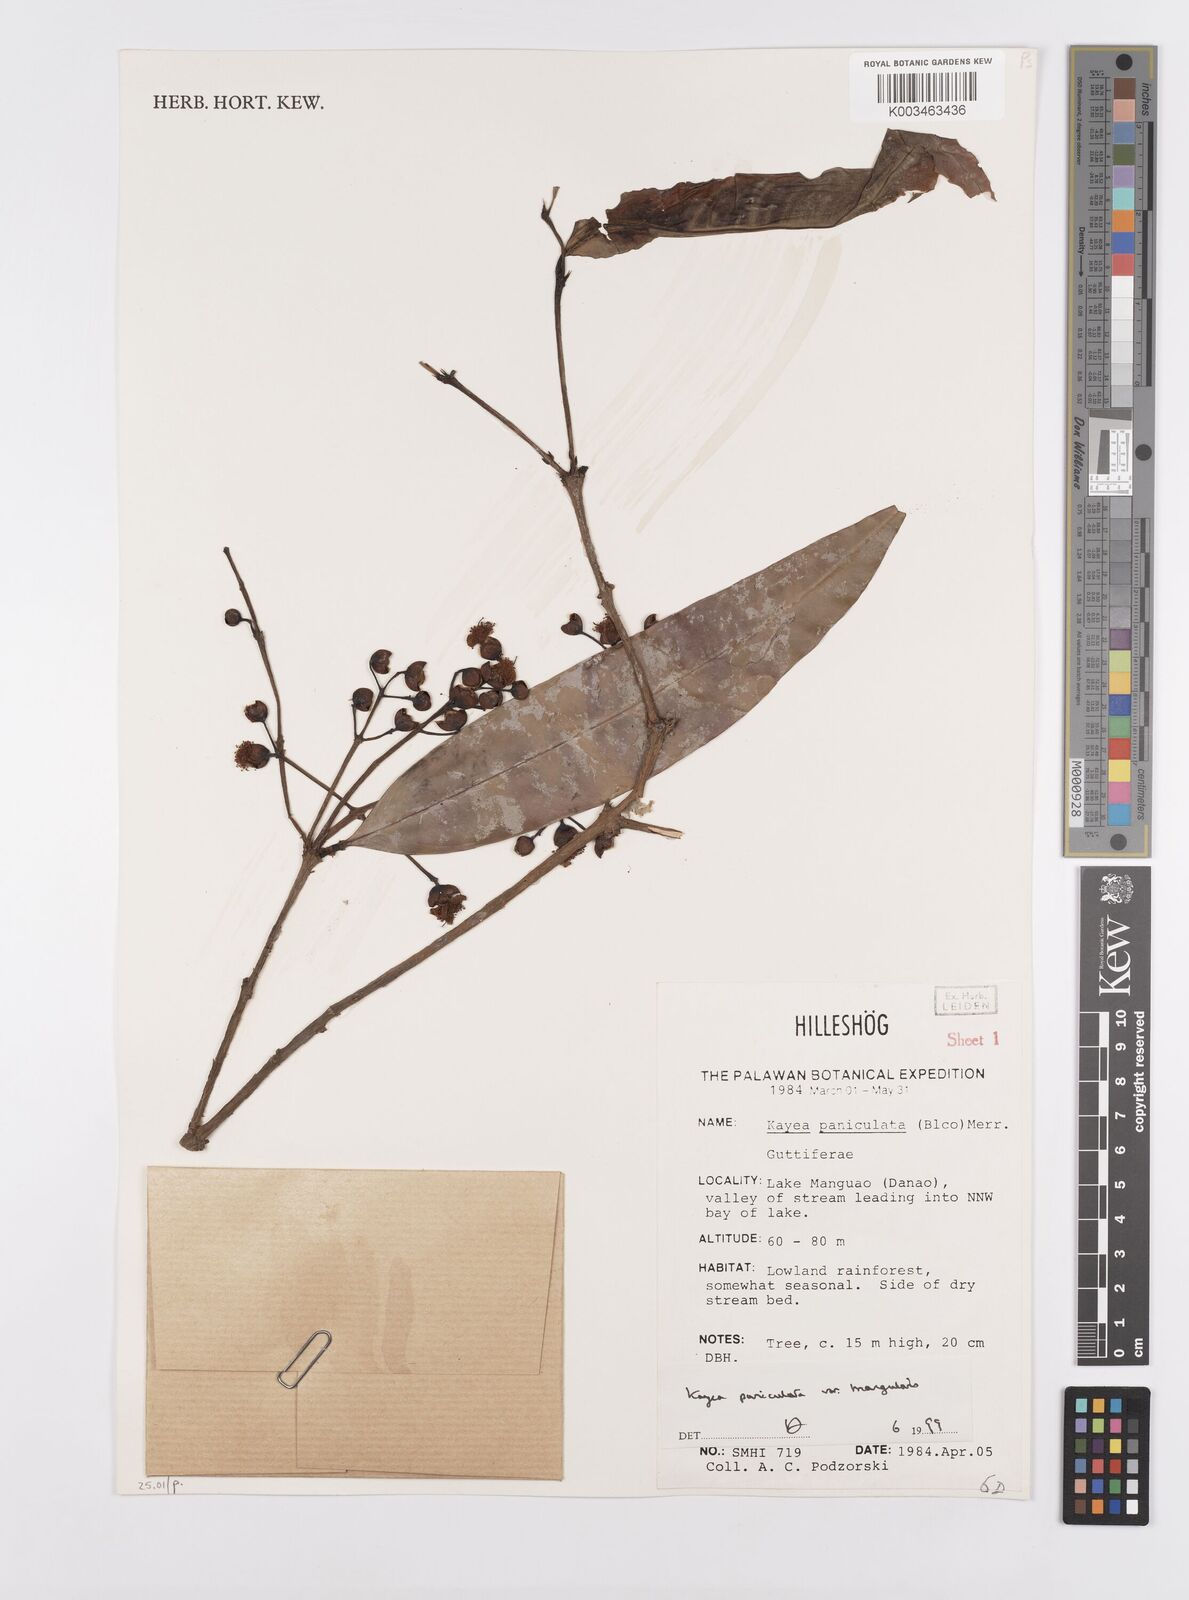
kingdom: Plantae
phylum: Tracheophyta
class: Magnoliopsida
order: Malpighiales
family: Calophyllaceae
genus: Kayea
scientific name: Kayea
